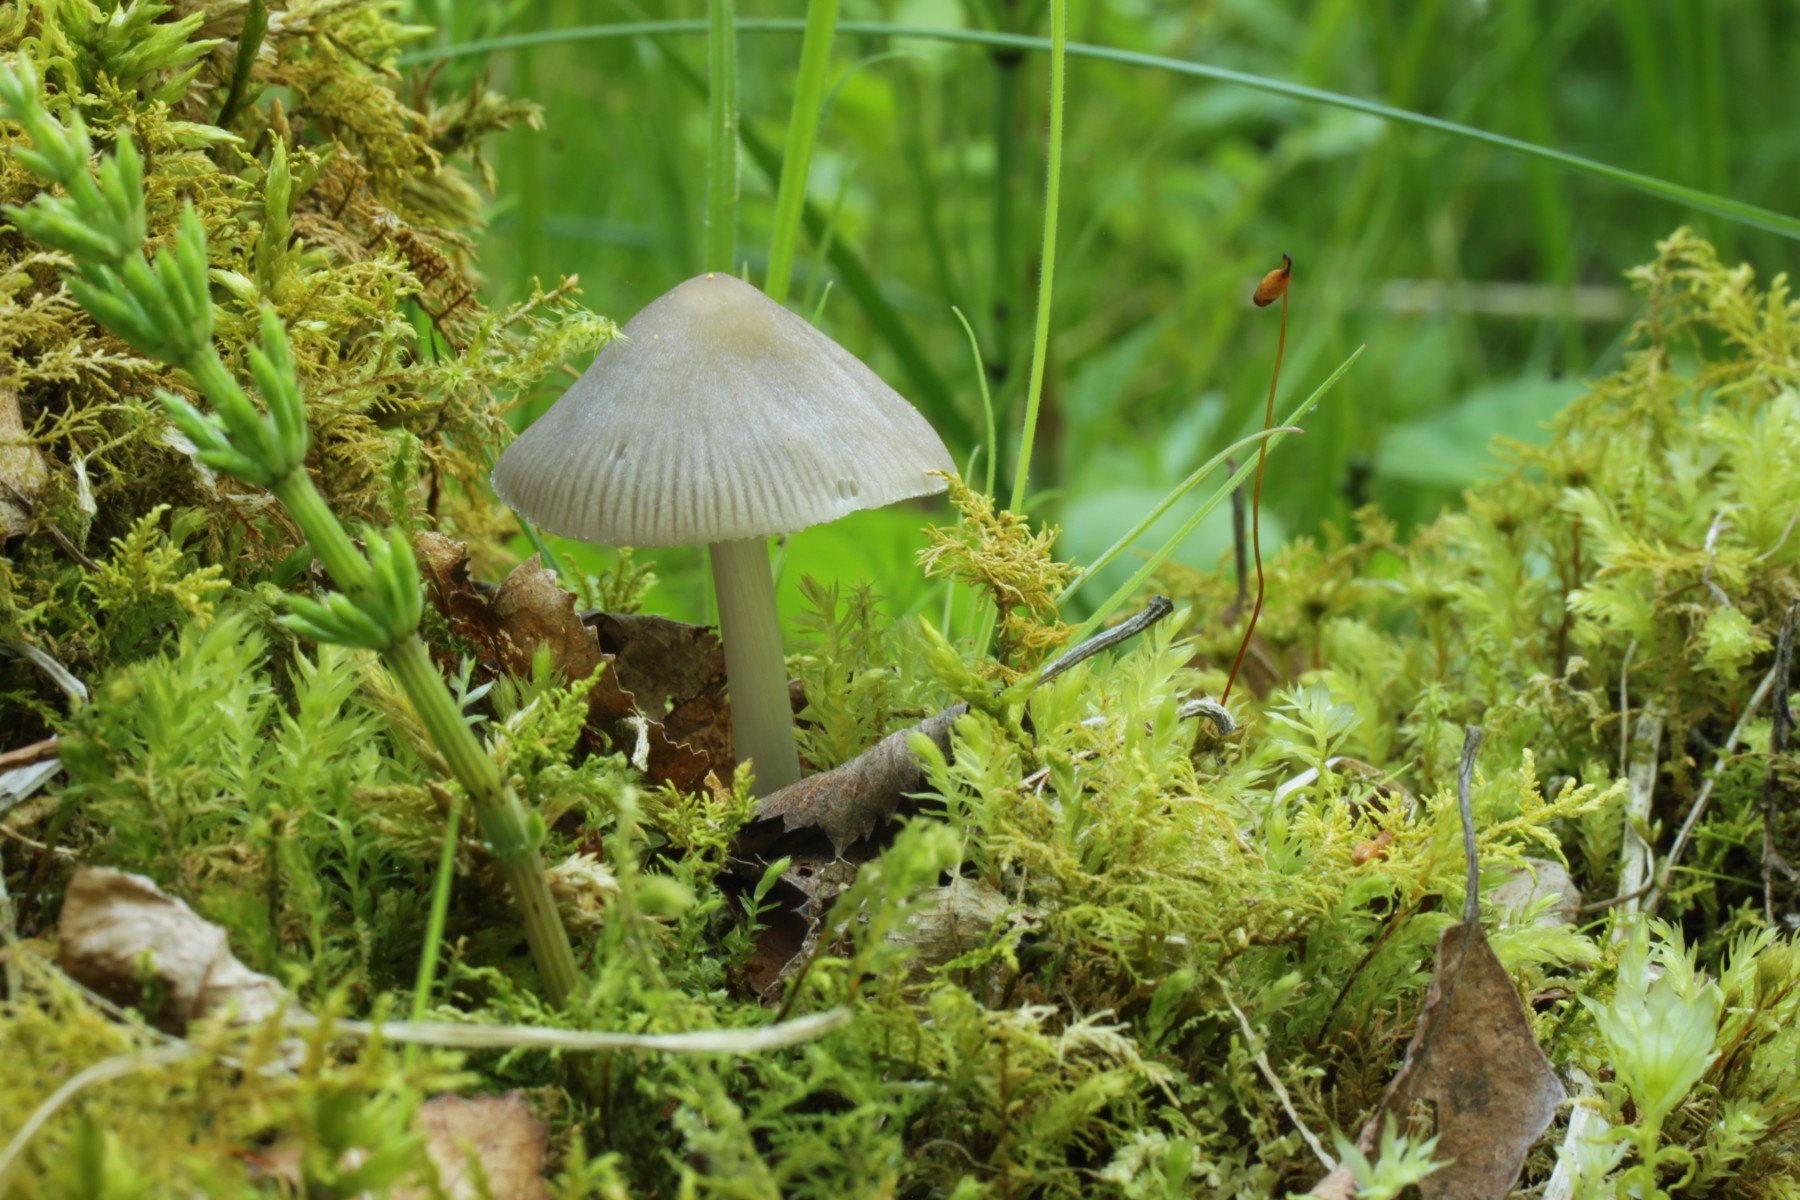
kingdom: Fungi
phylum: Basidiomycota
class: Agaricomycetes
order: Agaricales
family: Mycenaceae
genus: Mycena
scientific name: Mycena niveipes
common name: vår-huesvamp
